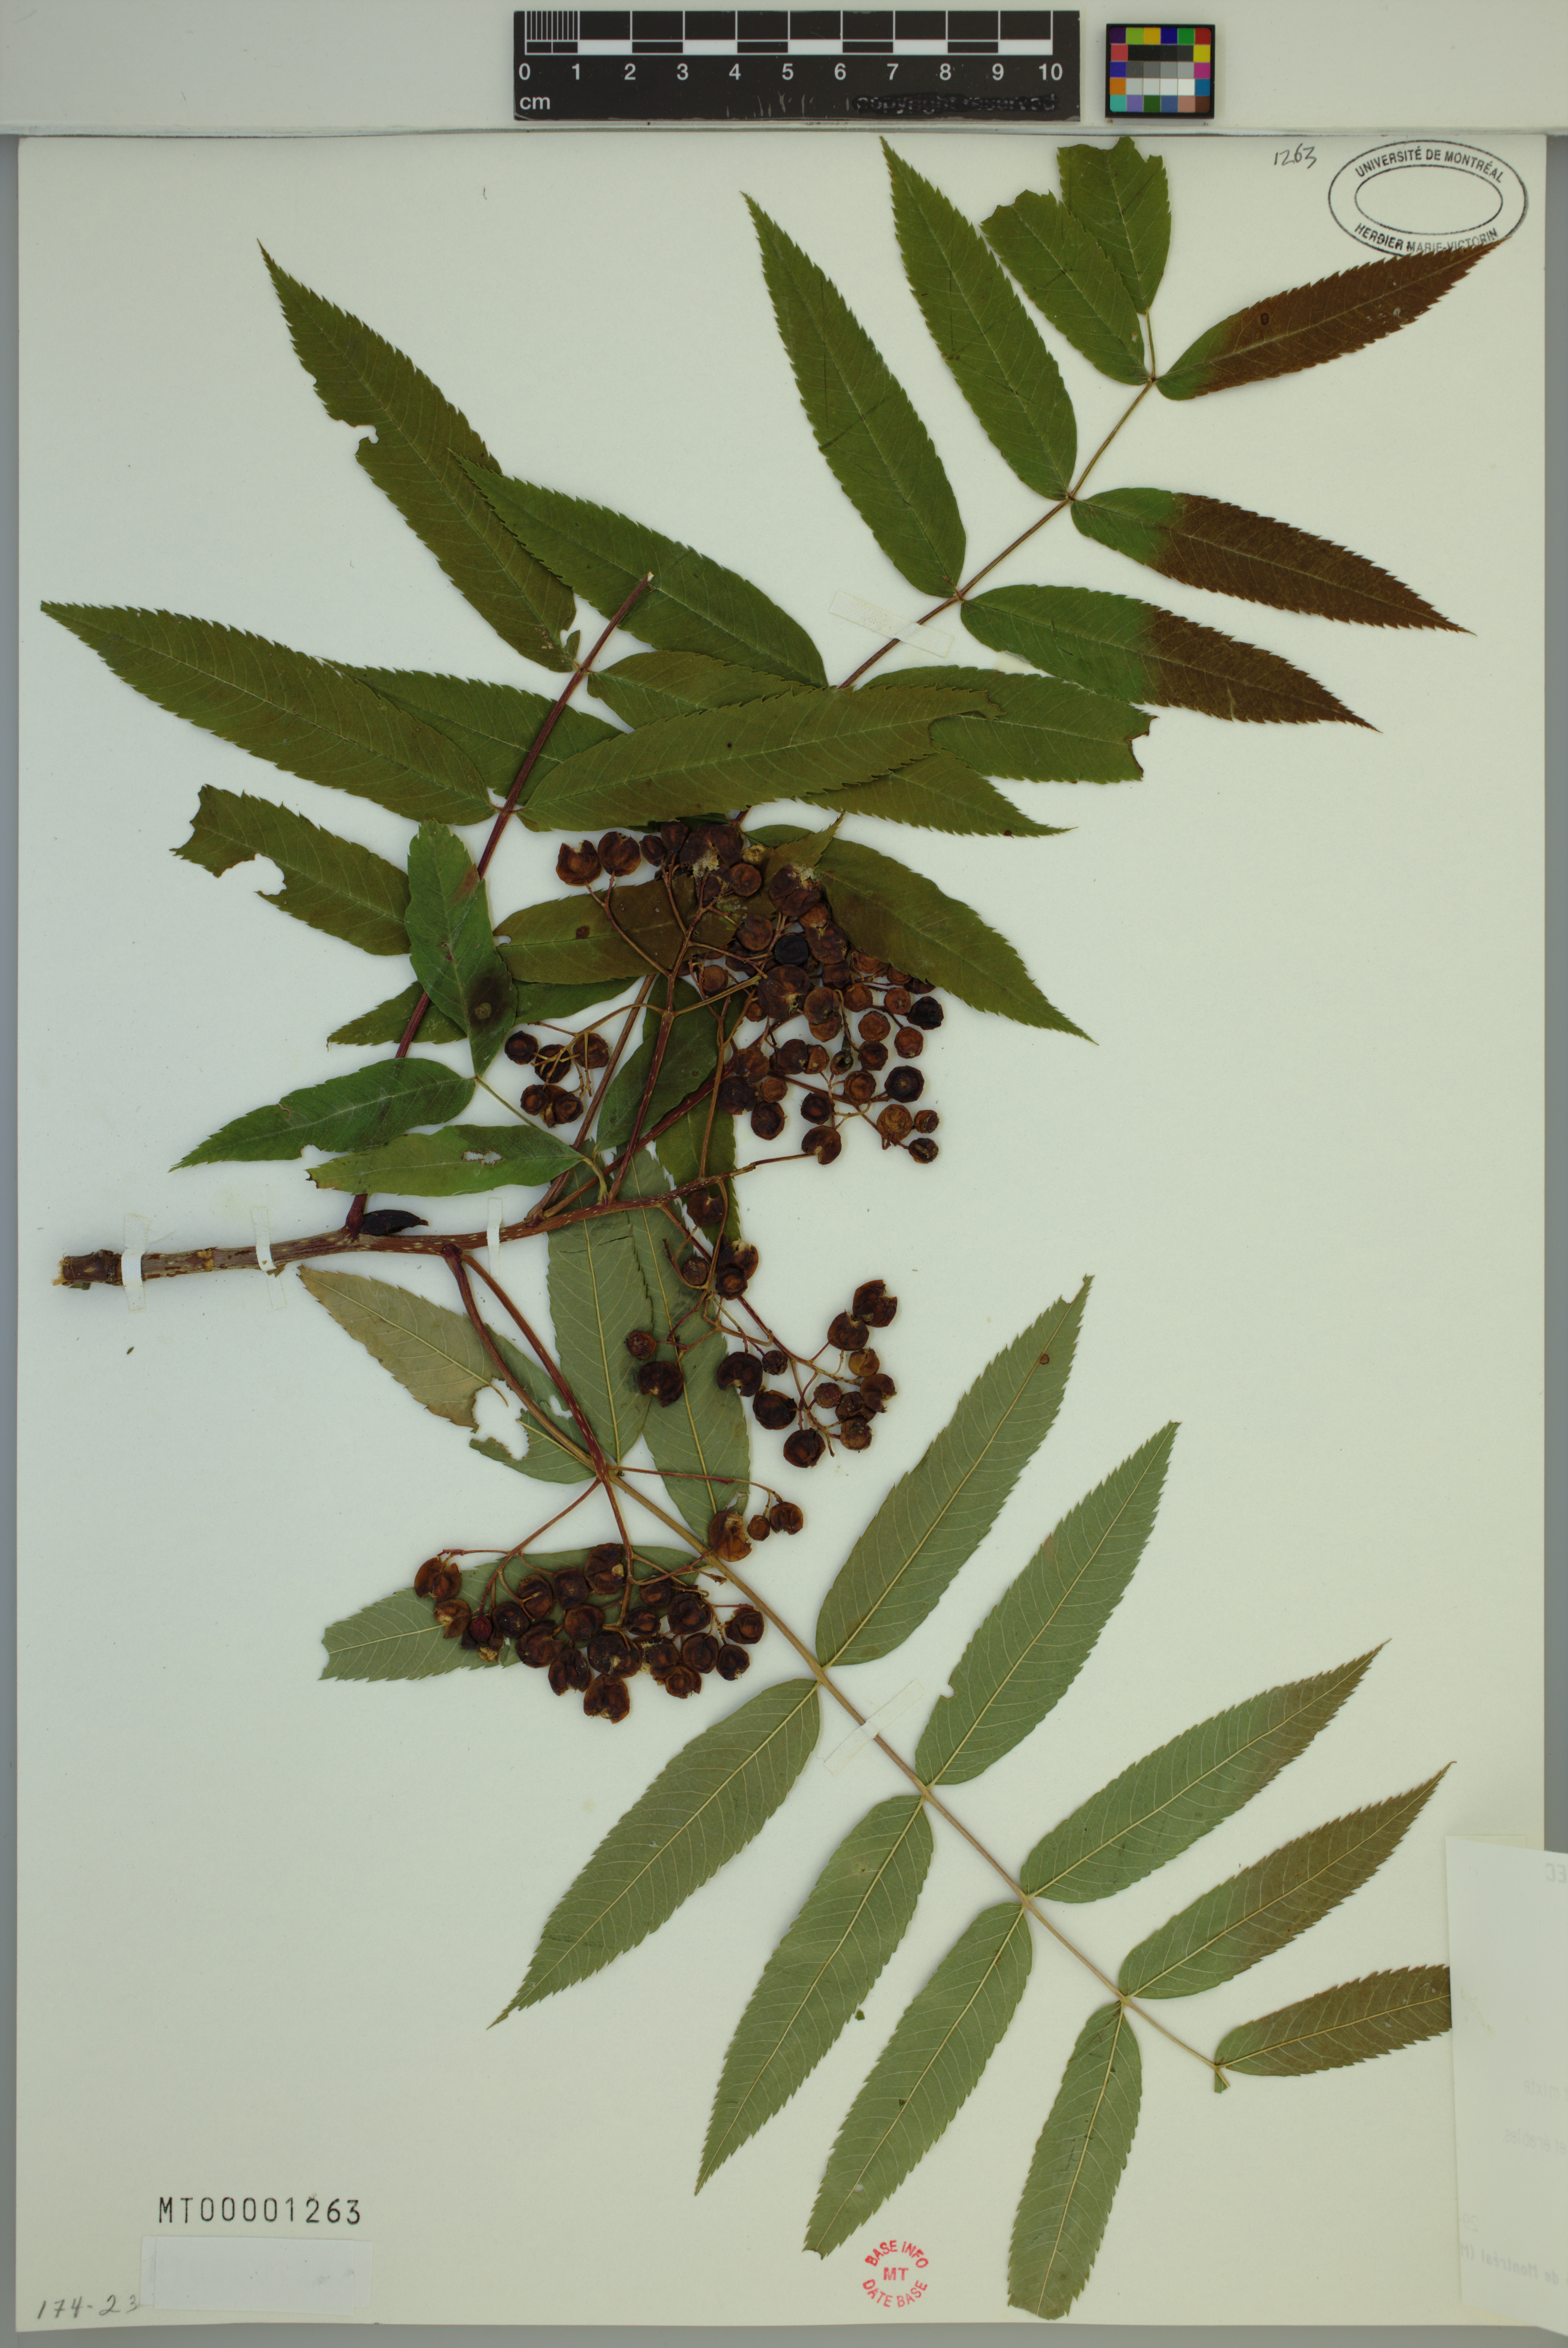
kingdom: Plantae
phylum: Tracheophyta
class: Magnoliopsida
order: Rosales
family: Rosaceae
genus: Sorbus
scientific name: Sorbus americana
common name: American mountain-ash
